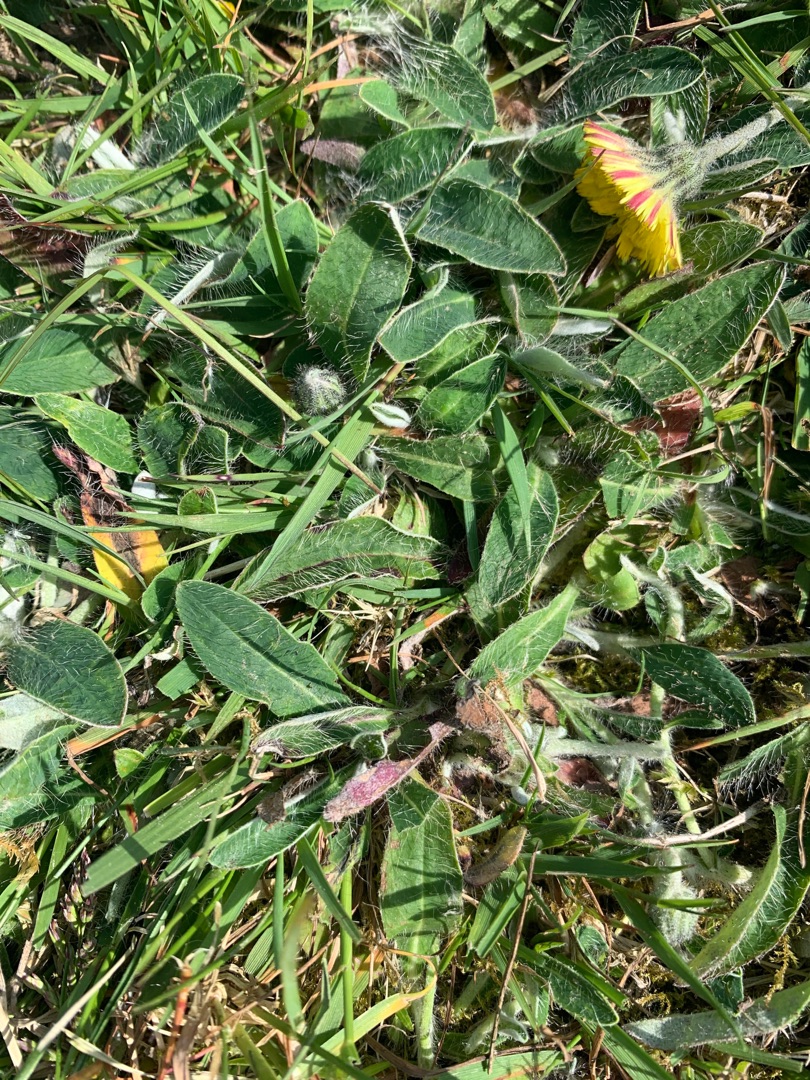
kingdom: Plantae
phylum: Tracheophyta
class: Magnoliopsida
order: Asterales
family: Asteraceae
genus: Pilosella
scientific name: Pilosella officinarum
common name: Håret høgeurt
